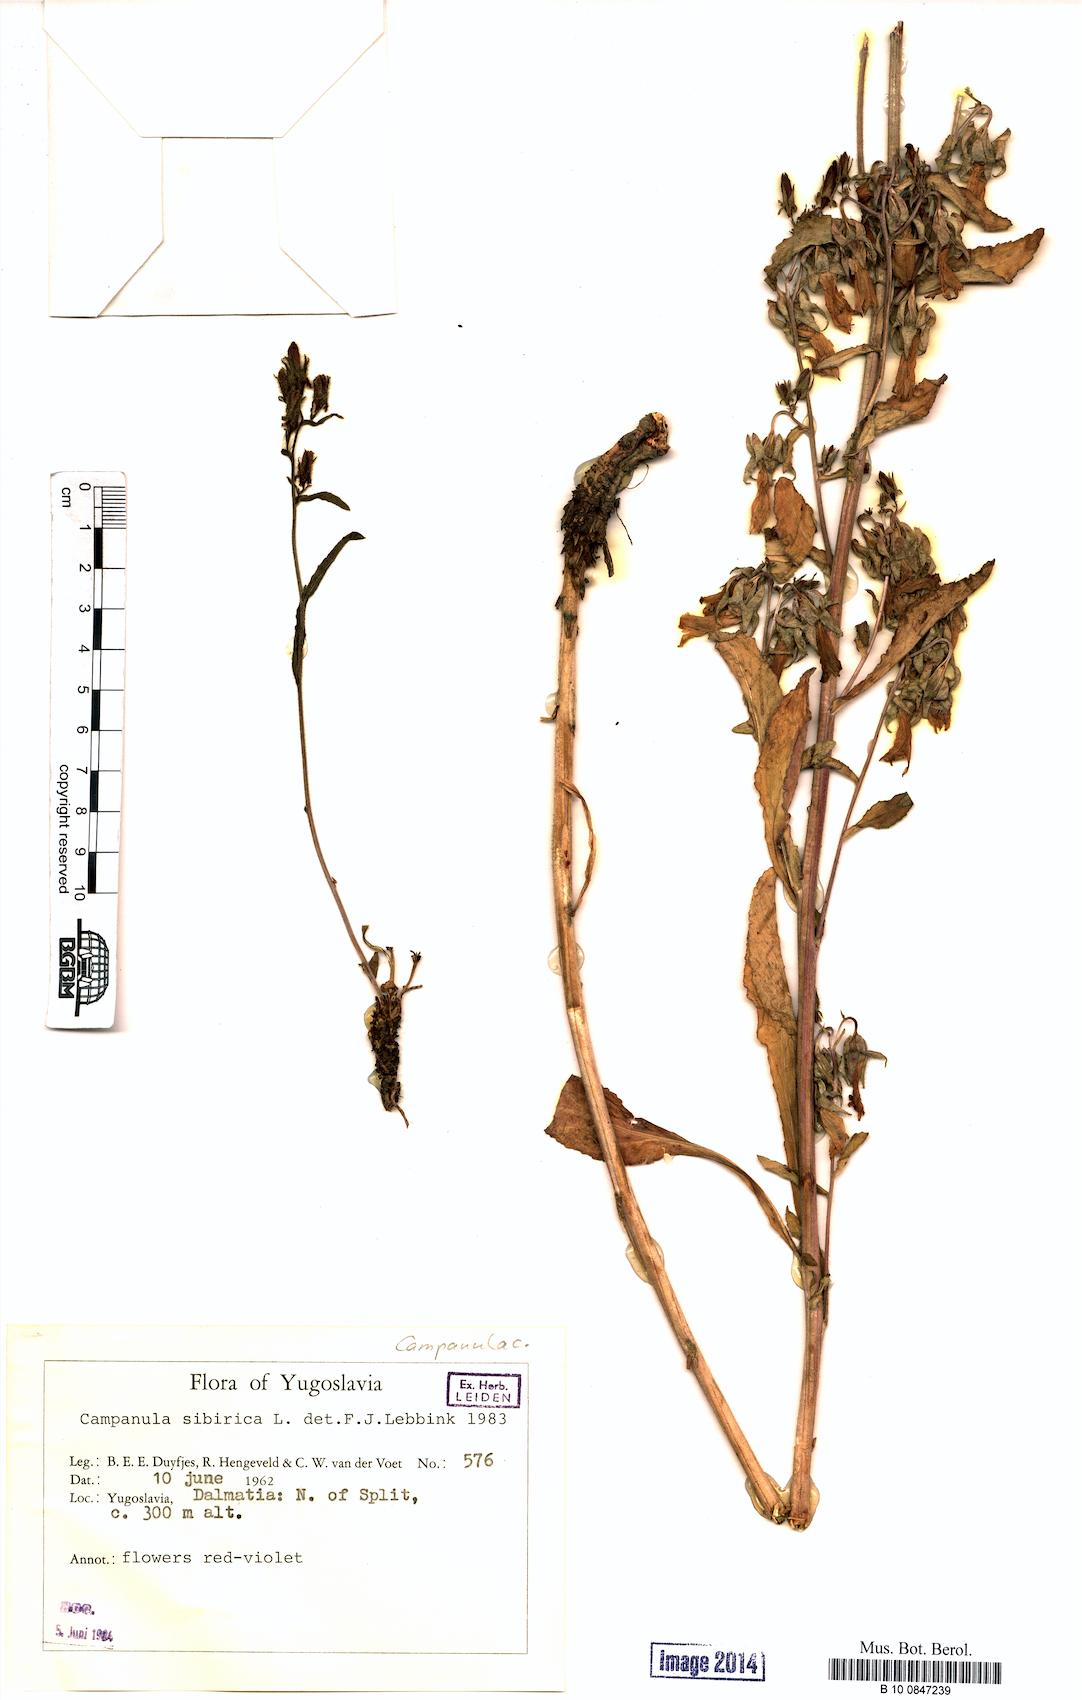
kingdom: Plantae
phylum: Tracheophyta
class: Magnoliopsida
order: Asterales
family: Campanulaceae
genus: Campanula
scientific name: Campanula sibirica
